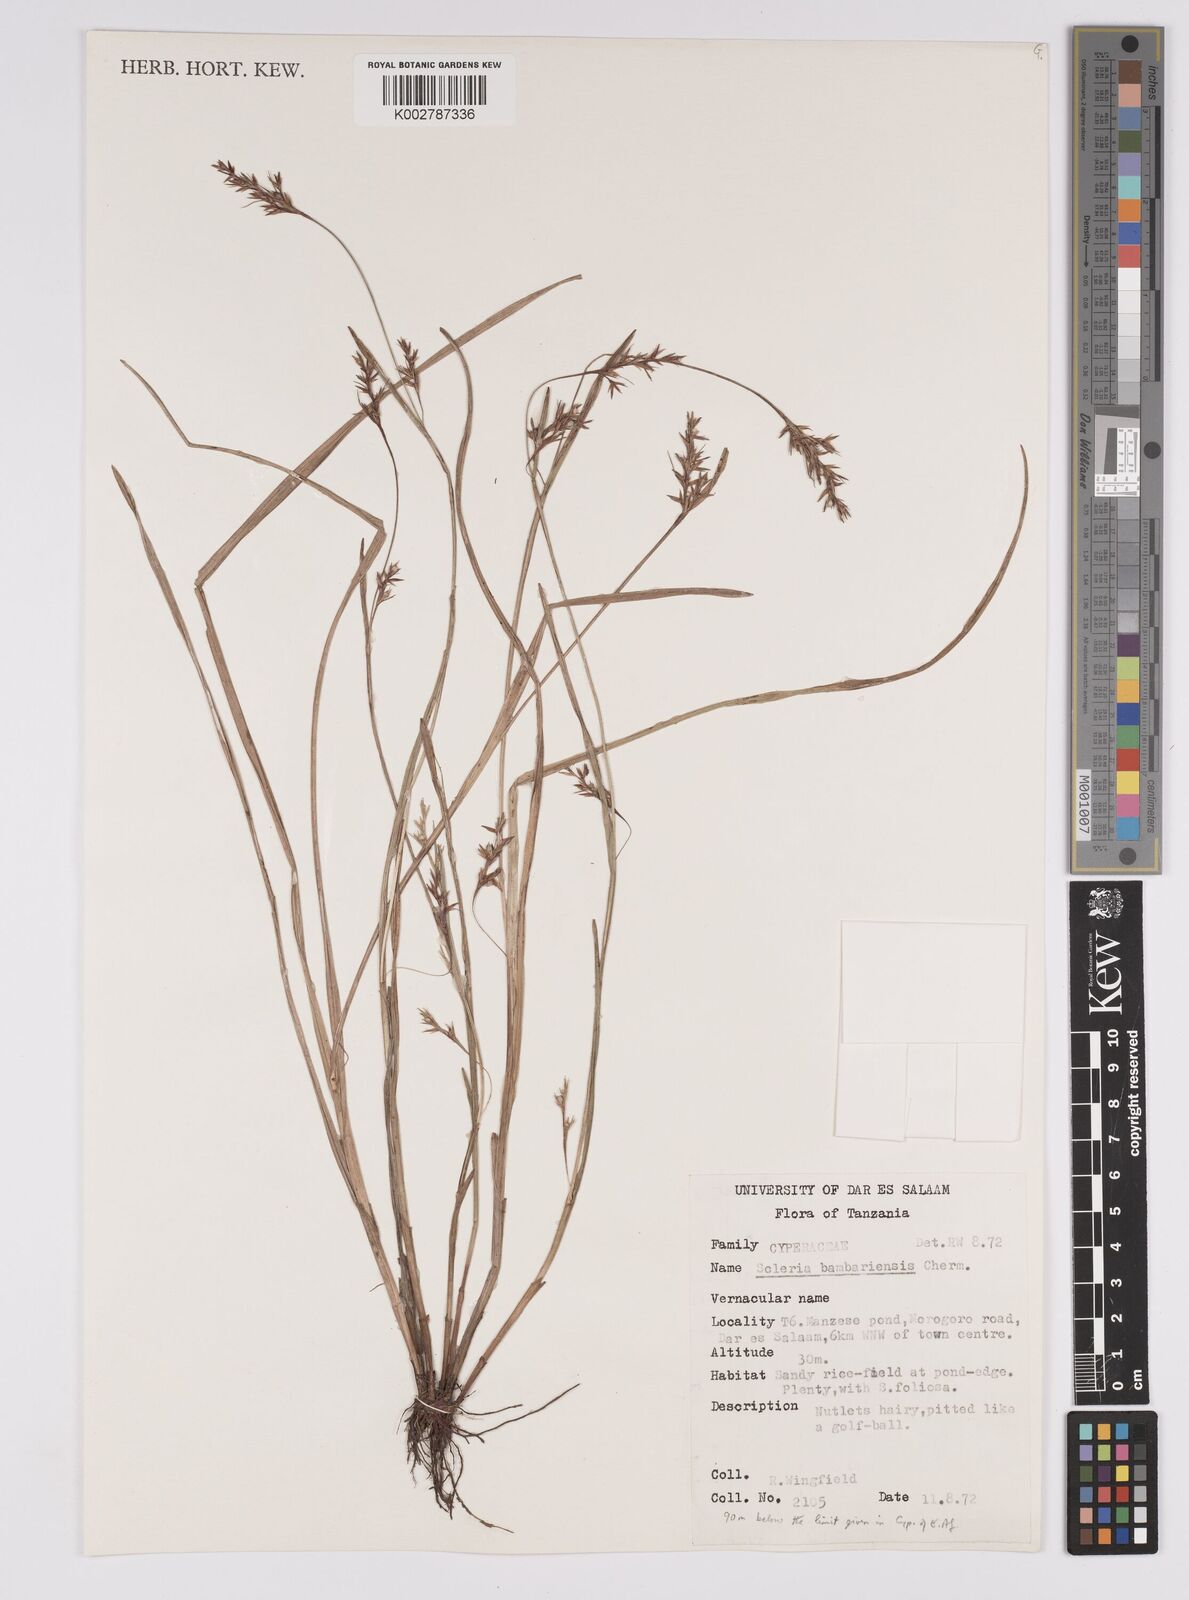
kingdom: Plantae
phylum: Tracheophyta
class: Liliopsida
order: Poales
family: Cyperaceae
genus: Scleria
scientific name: Scleria bambariensis
